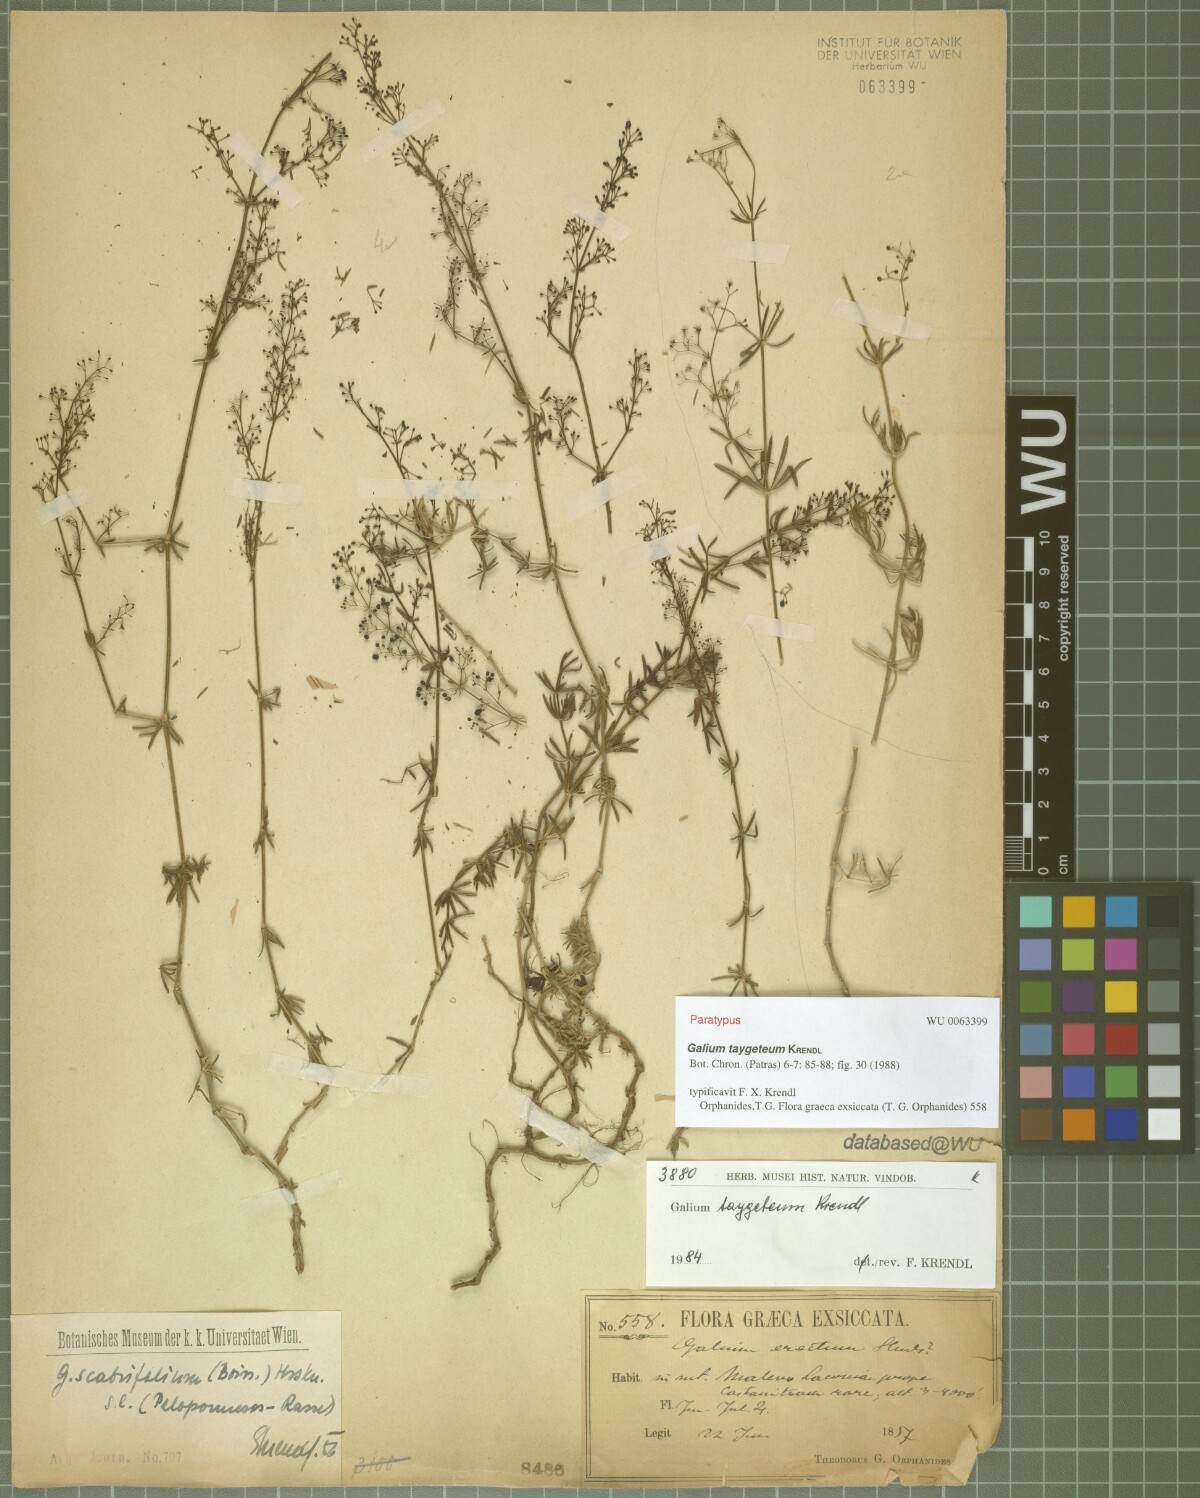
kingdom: Plantae
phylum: Tracheophyta
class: Magnoliopsida
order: Gentianales
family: Rubiaceae
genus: Galium
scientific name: Galium taygeteum
